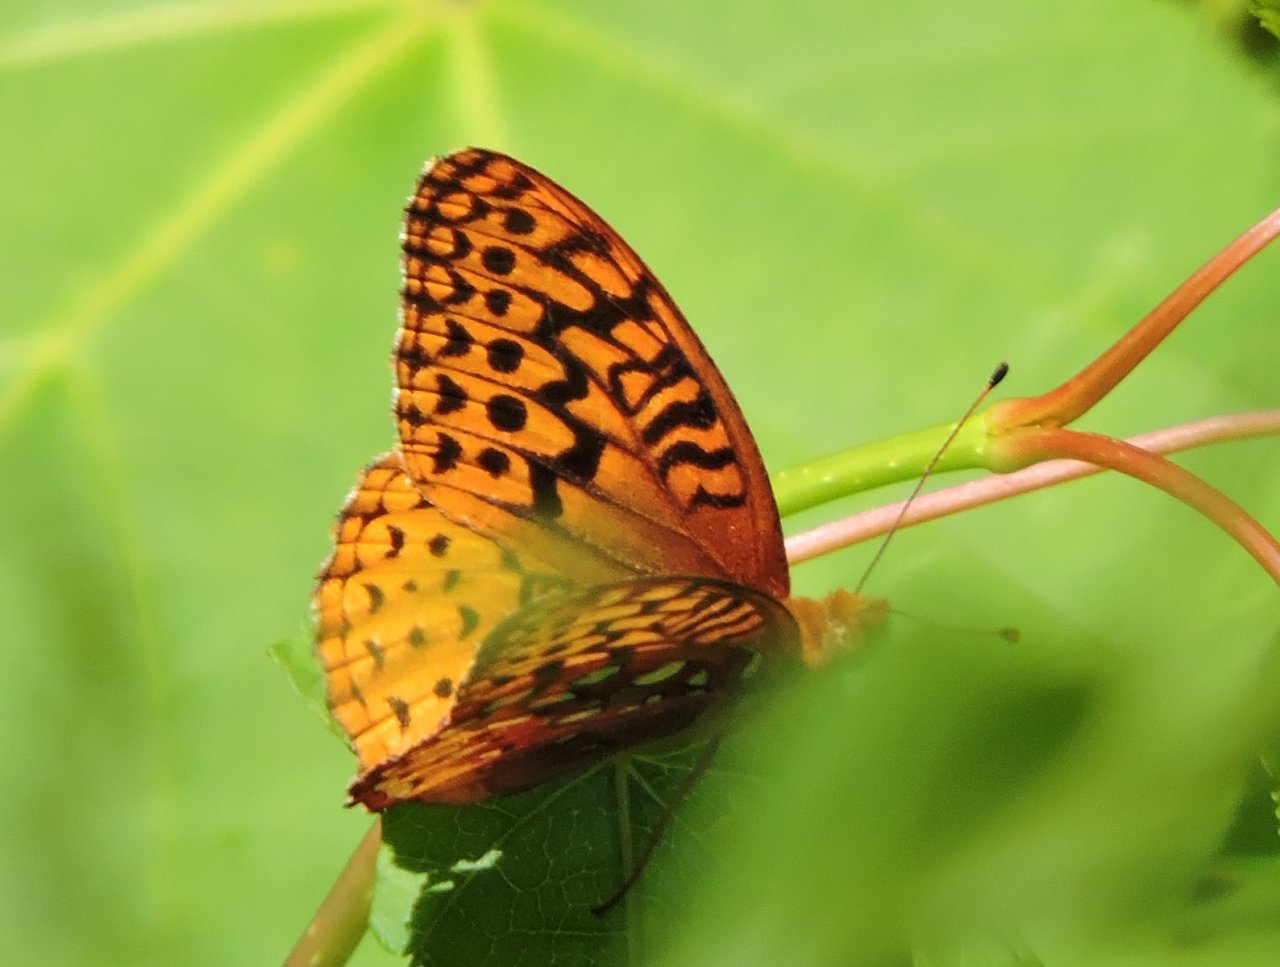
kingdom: Animalia
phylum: Arthropoda
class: Insecta
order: Lepidoptera
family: Nymphalidae
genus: Speyeria
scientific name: Speyeria cybele
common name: Great Spangled Fritillary
